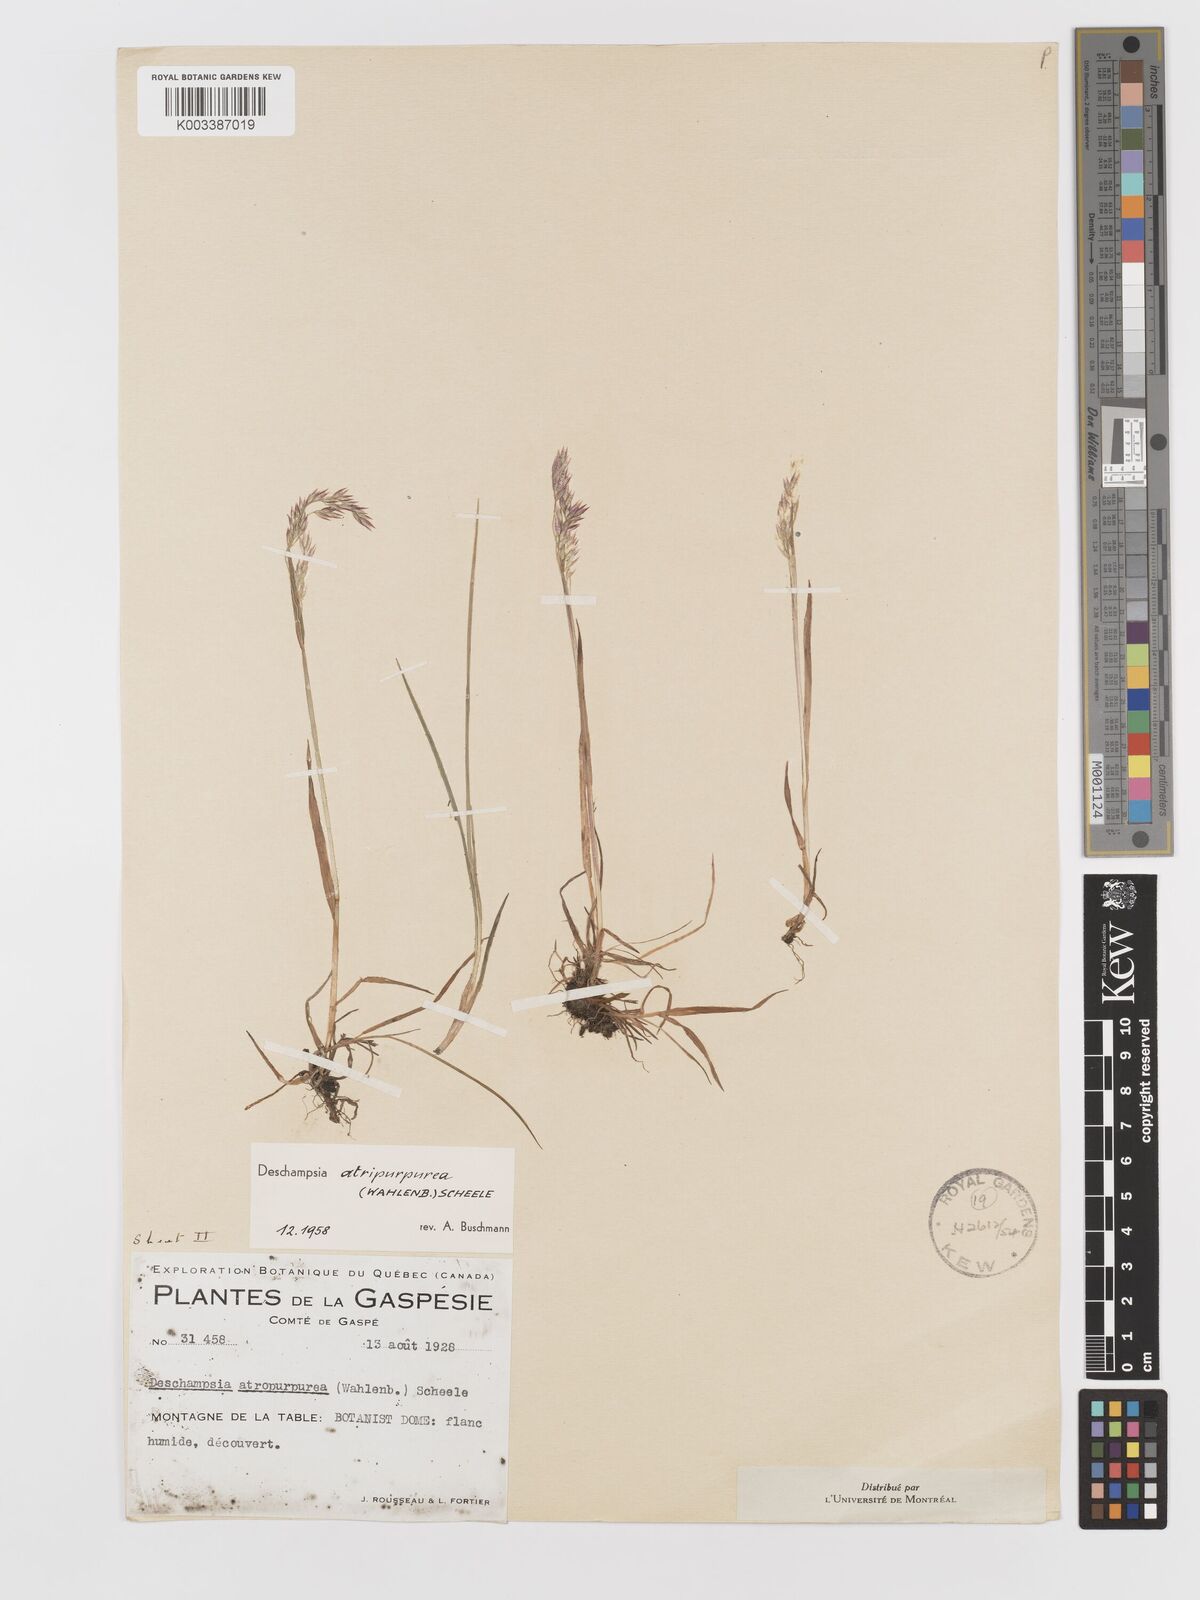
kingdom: Plantae
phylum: Tracheophyta
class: Liliopsida
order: Poales
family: Poaceae
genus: Vahlodea
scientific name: Vahlodea atropurpurea
